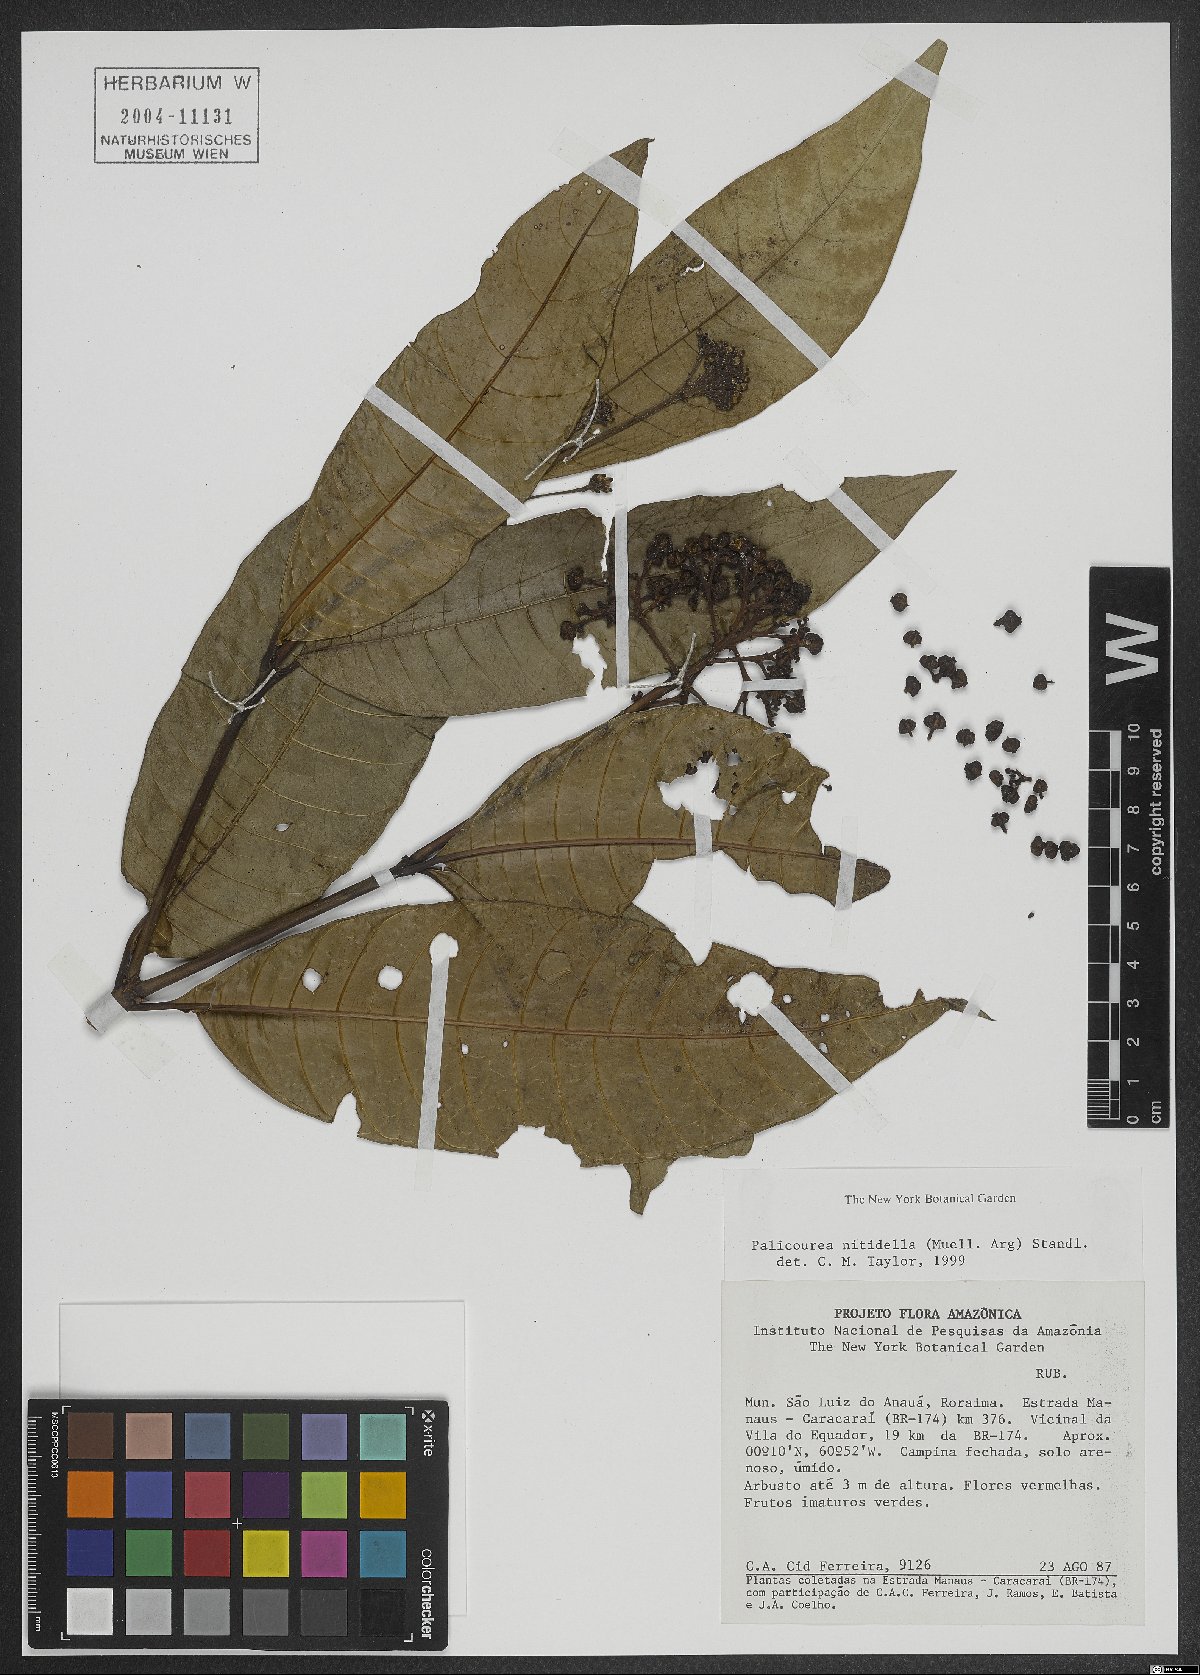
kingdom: Plantae
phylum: Tracheophyta
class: Magnoliopsida
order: Gentianales
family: Rubiaceae
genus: Palicourea
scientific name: Palicourea nitidella
